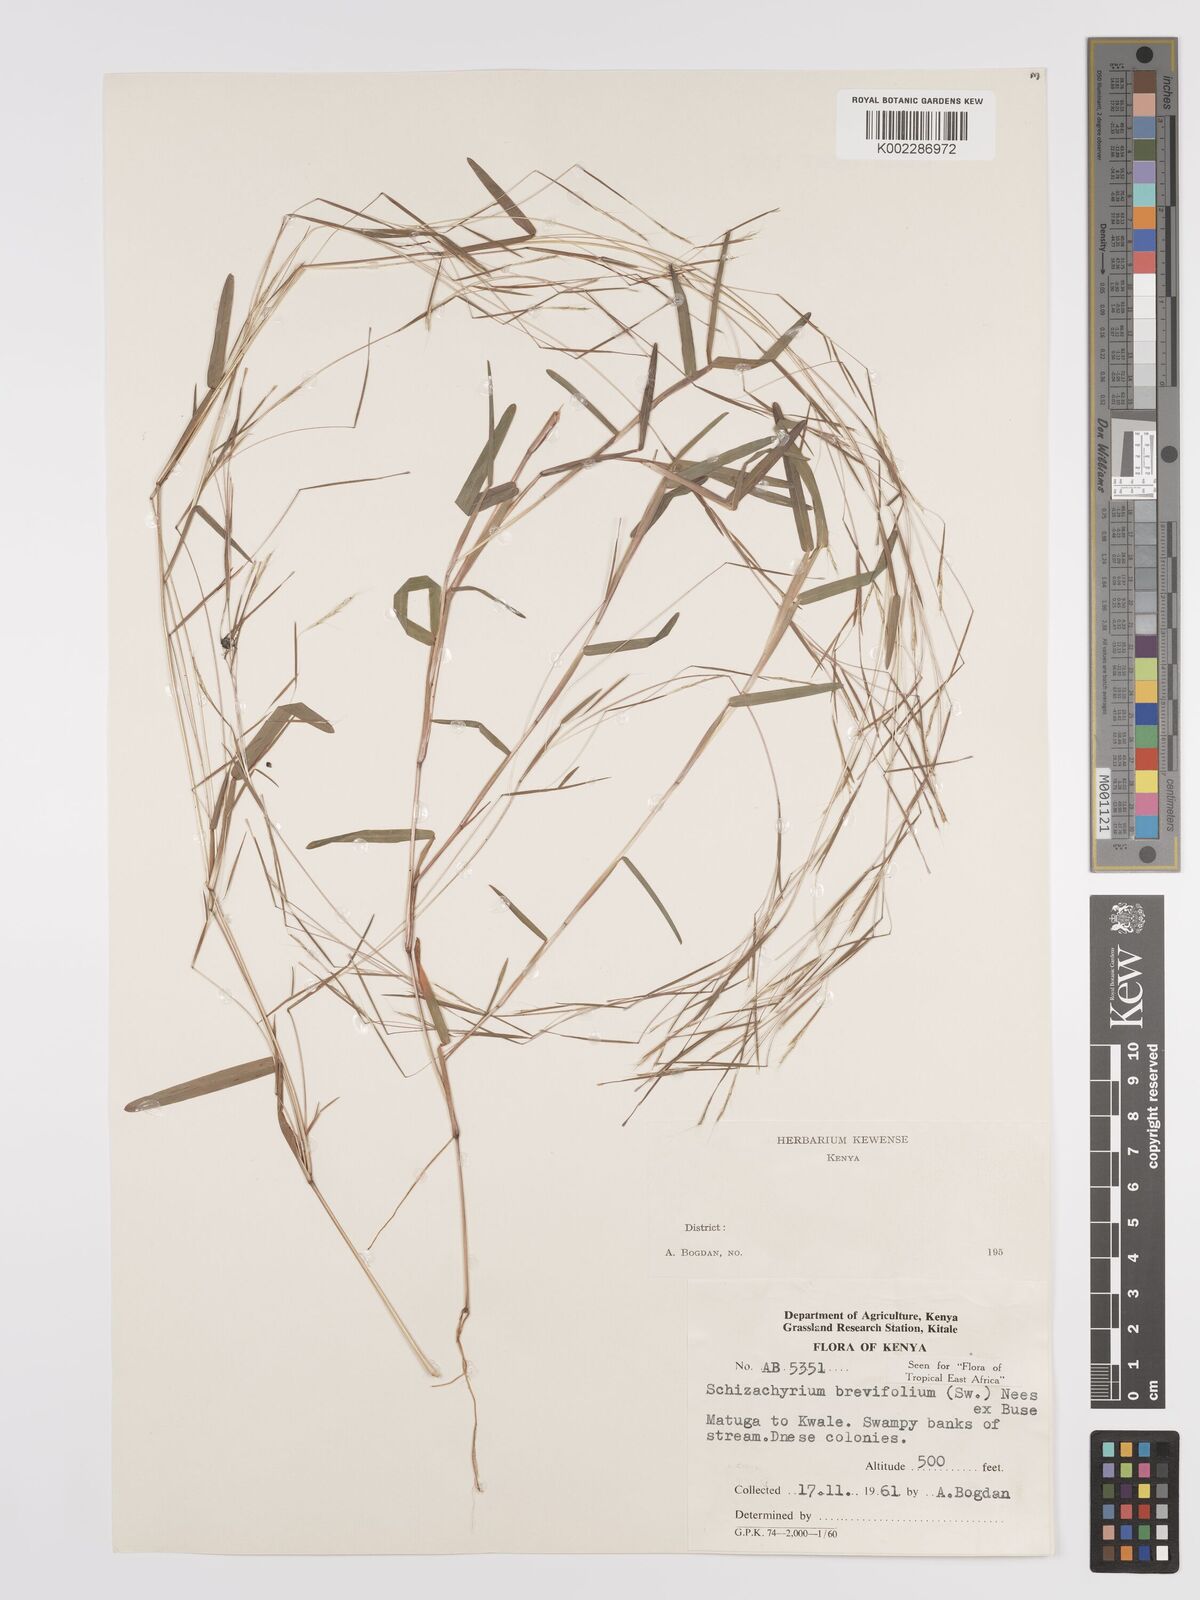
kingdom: Plantae
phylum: Tracheophyta
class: Liliopsida
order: Poales
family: Poaceae
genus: Schizachyrium
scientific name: Schizachyrium brevifolium
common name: Serillo dulce
